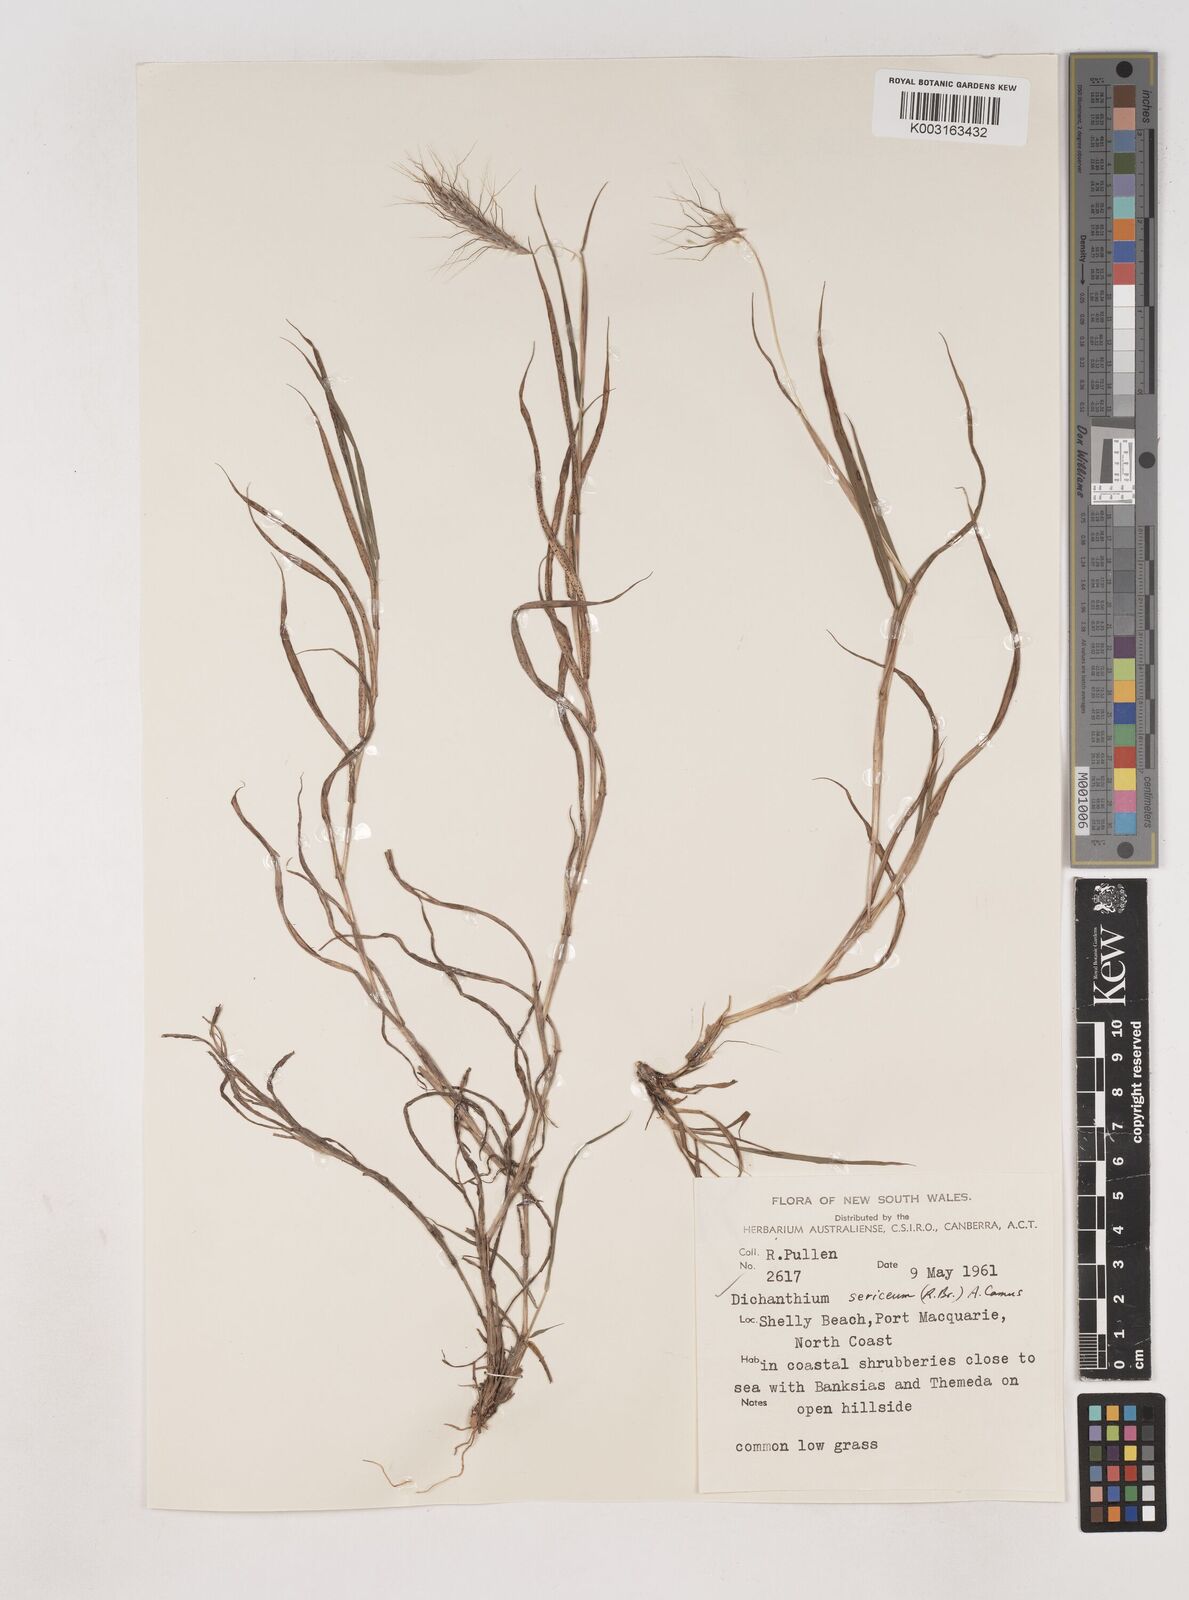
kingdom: Plantae
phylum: Tracheophyta
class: Liliopsida
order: Poales
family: Poaceae
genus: Dichanthium
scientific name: Dichanthium sericeum
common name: Silky bluestem
